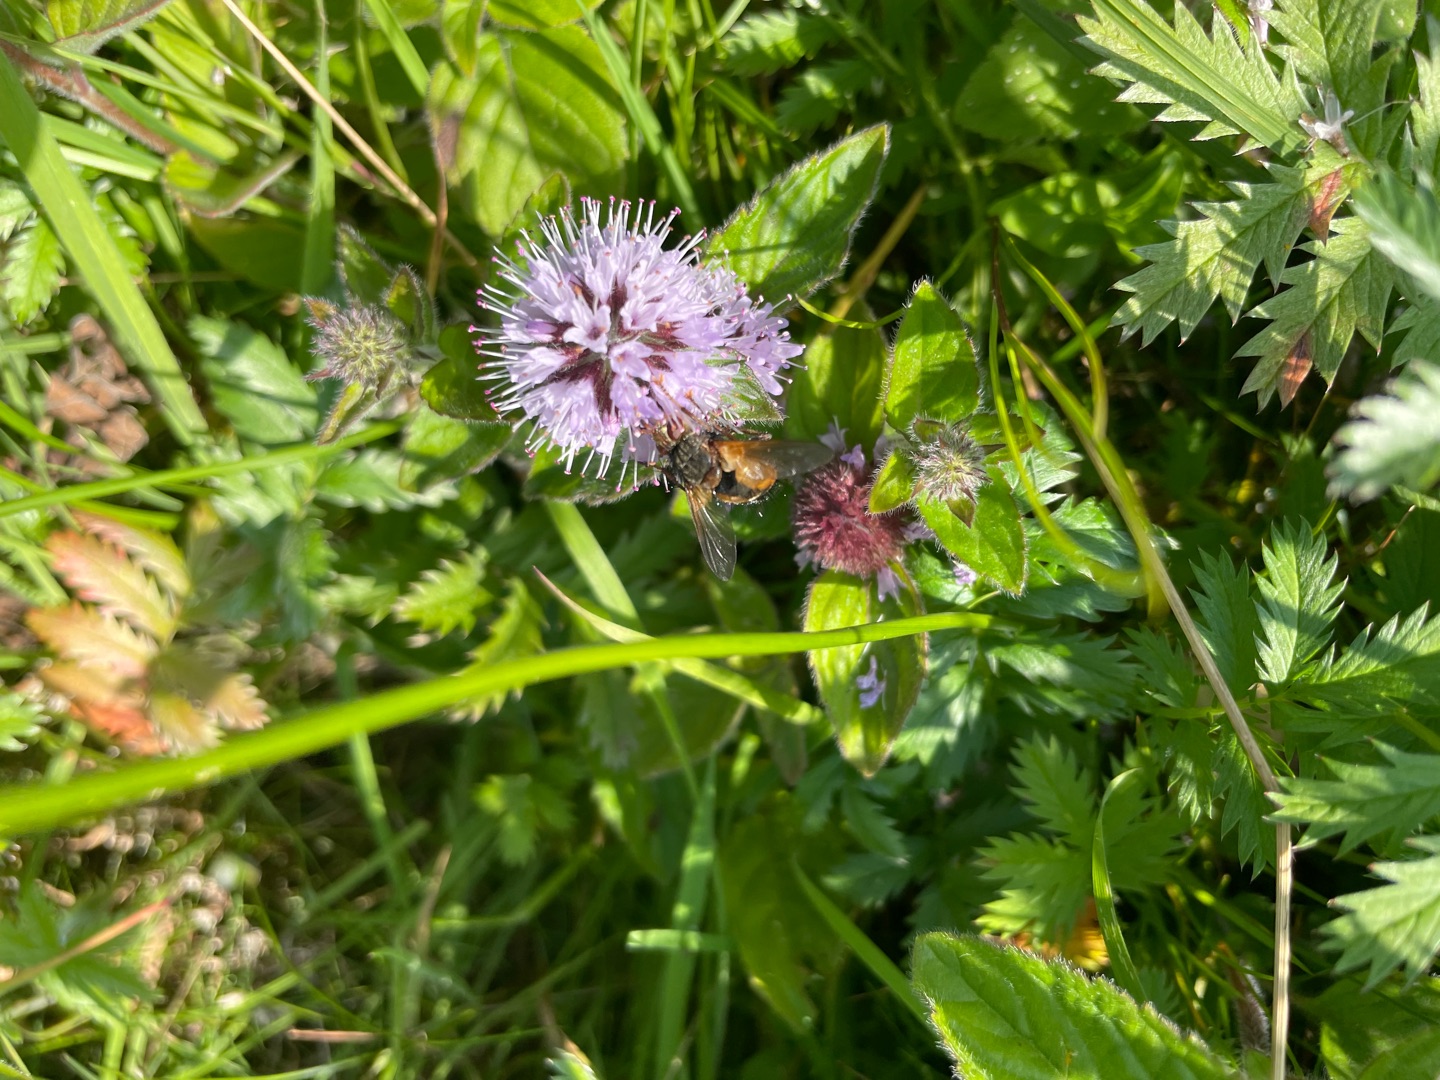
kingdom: Animalia
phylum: Arthropoda
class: Insecta
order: Diptera
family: Tachinidae
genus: Tachina
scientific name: Tachina fera
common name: Mellemfluen oskar
